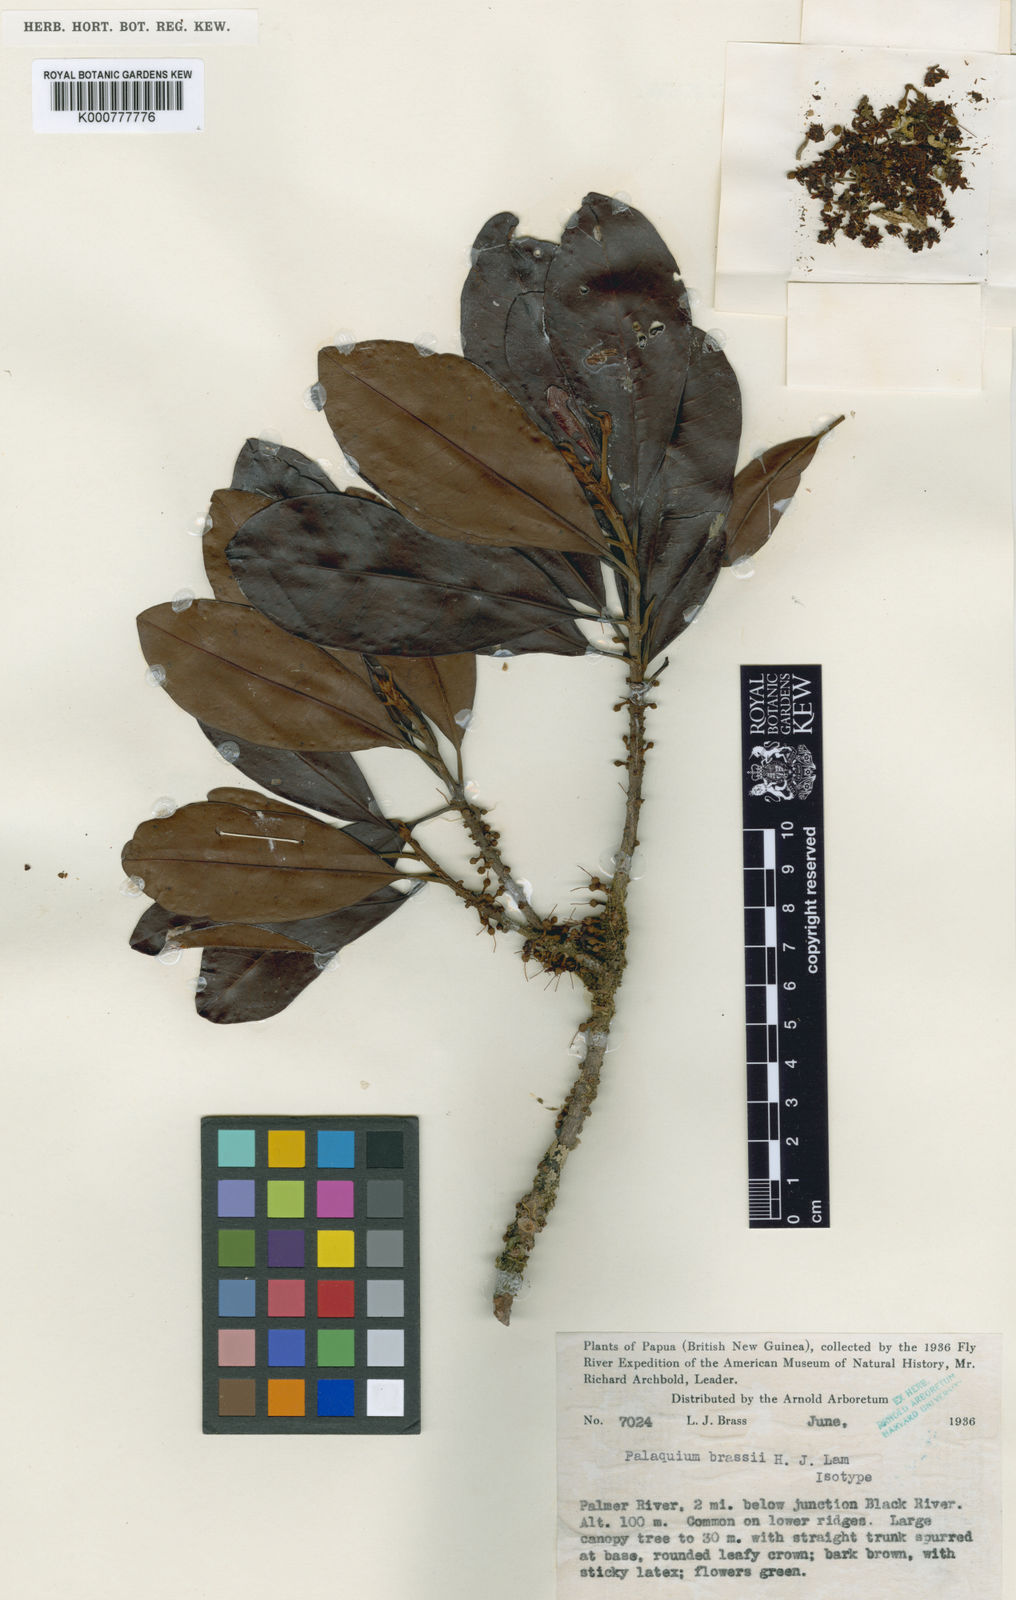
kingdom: Plantae
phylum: Tracheophyta
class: Magnoliopsida
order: Ericales
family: Sapotaceae
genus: Palaquium
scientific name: Palaquium brassii
